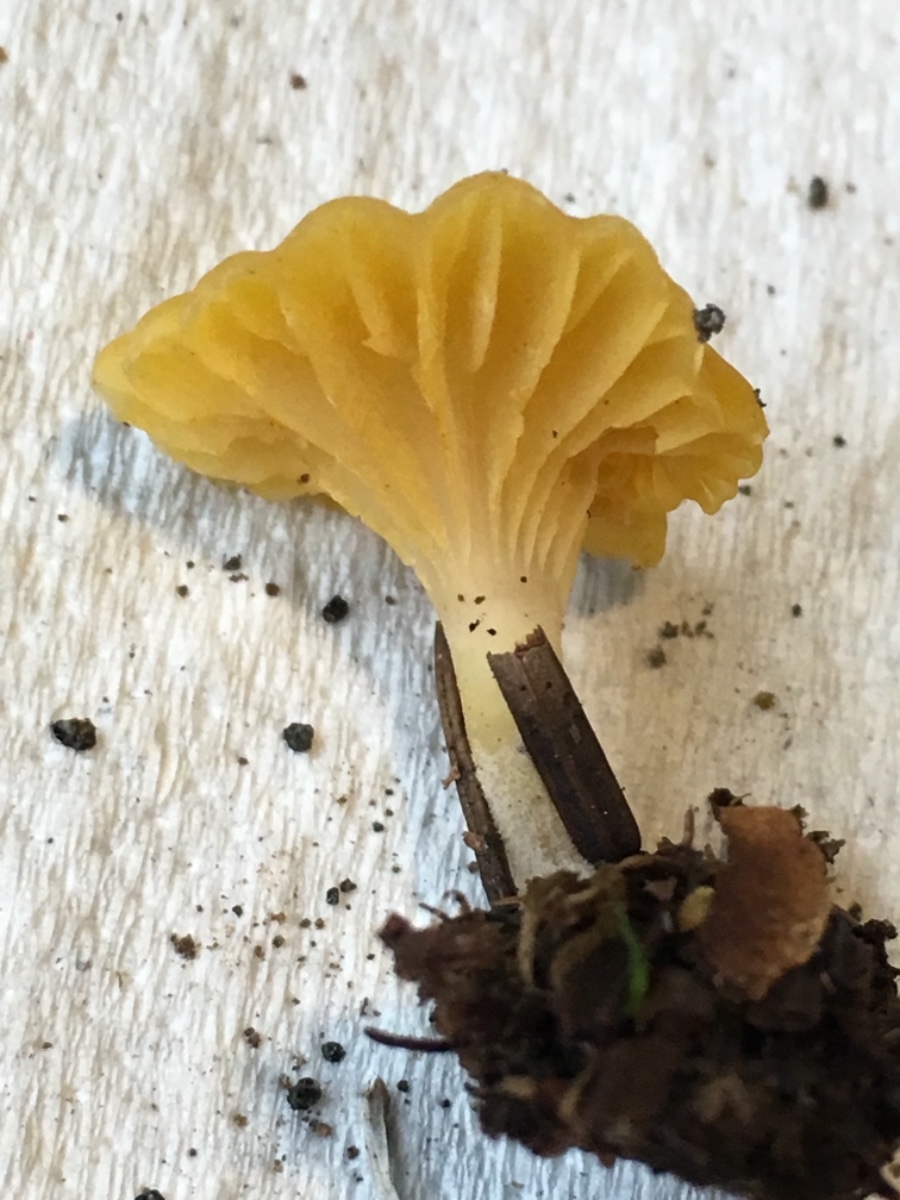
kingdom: Fungi
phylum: Basidiomycota
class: Agaricomycetes
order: Agaricales
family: Hygrophoraceae
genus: Chromosera
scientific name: Chromosera citrinopallida
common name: hvidgul vokshat
